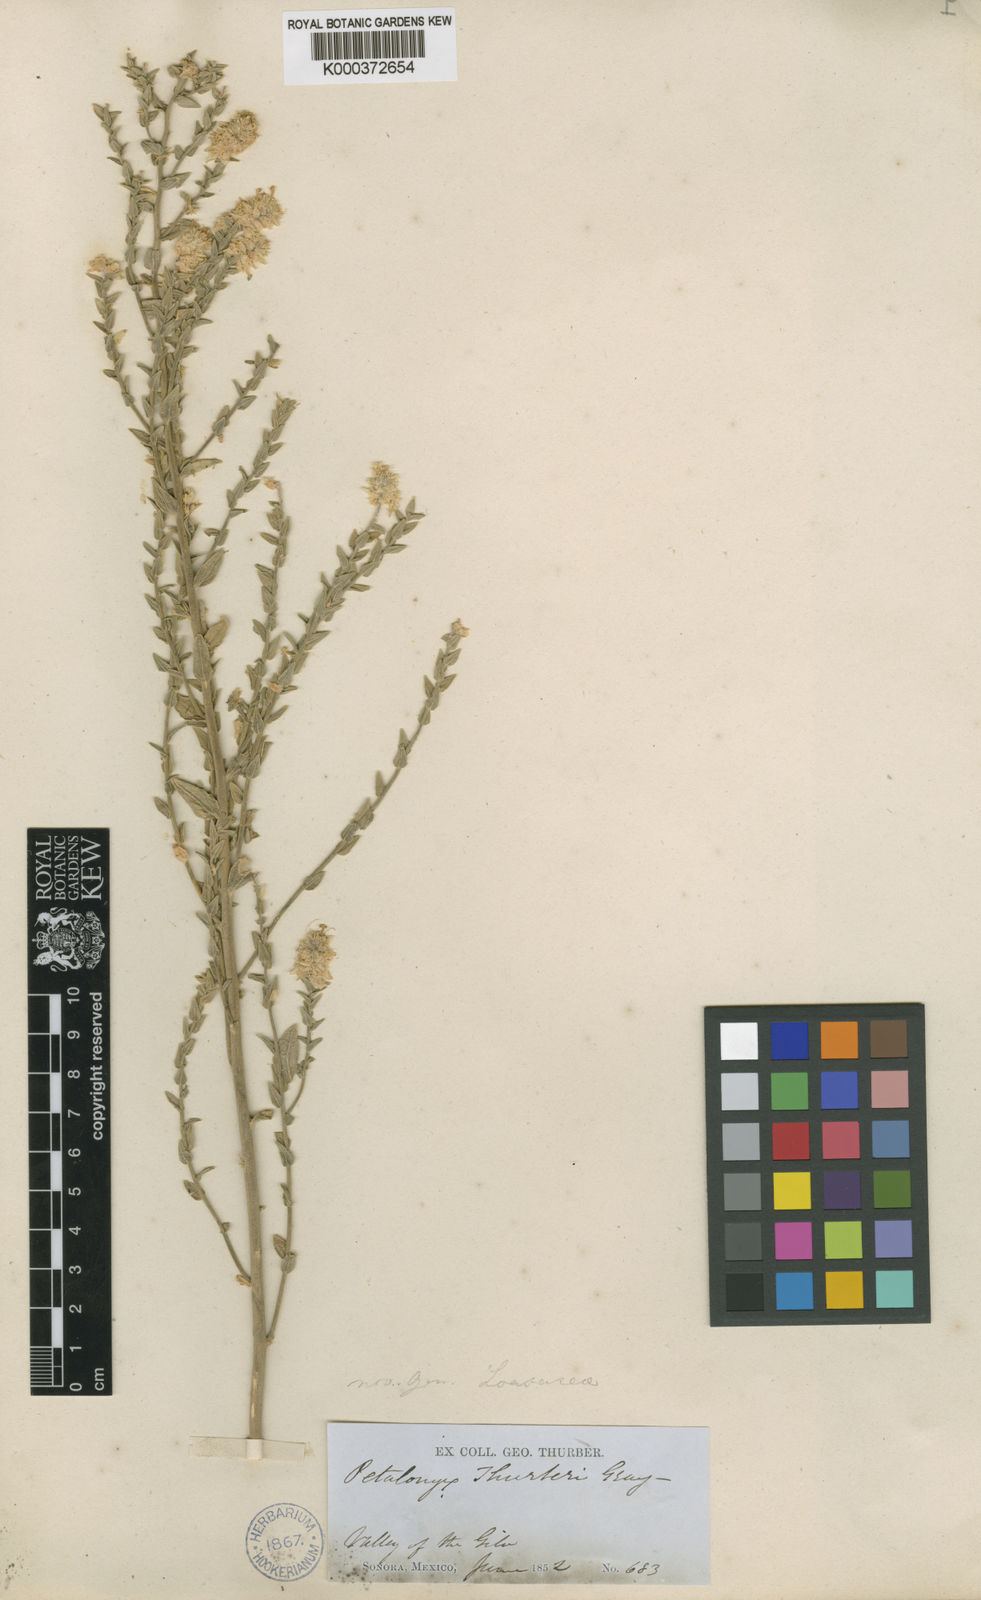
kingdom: Plantae
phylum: Tracheophyta
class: Magnoliopsida
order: Cornales
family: Loasaceae
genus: Petalonyx
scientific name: Petalonyx thurberi
